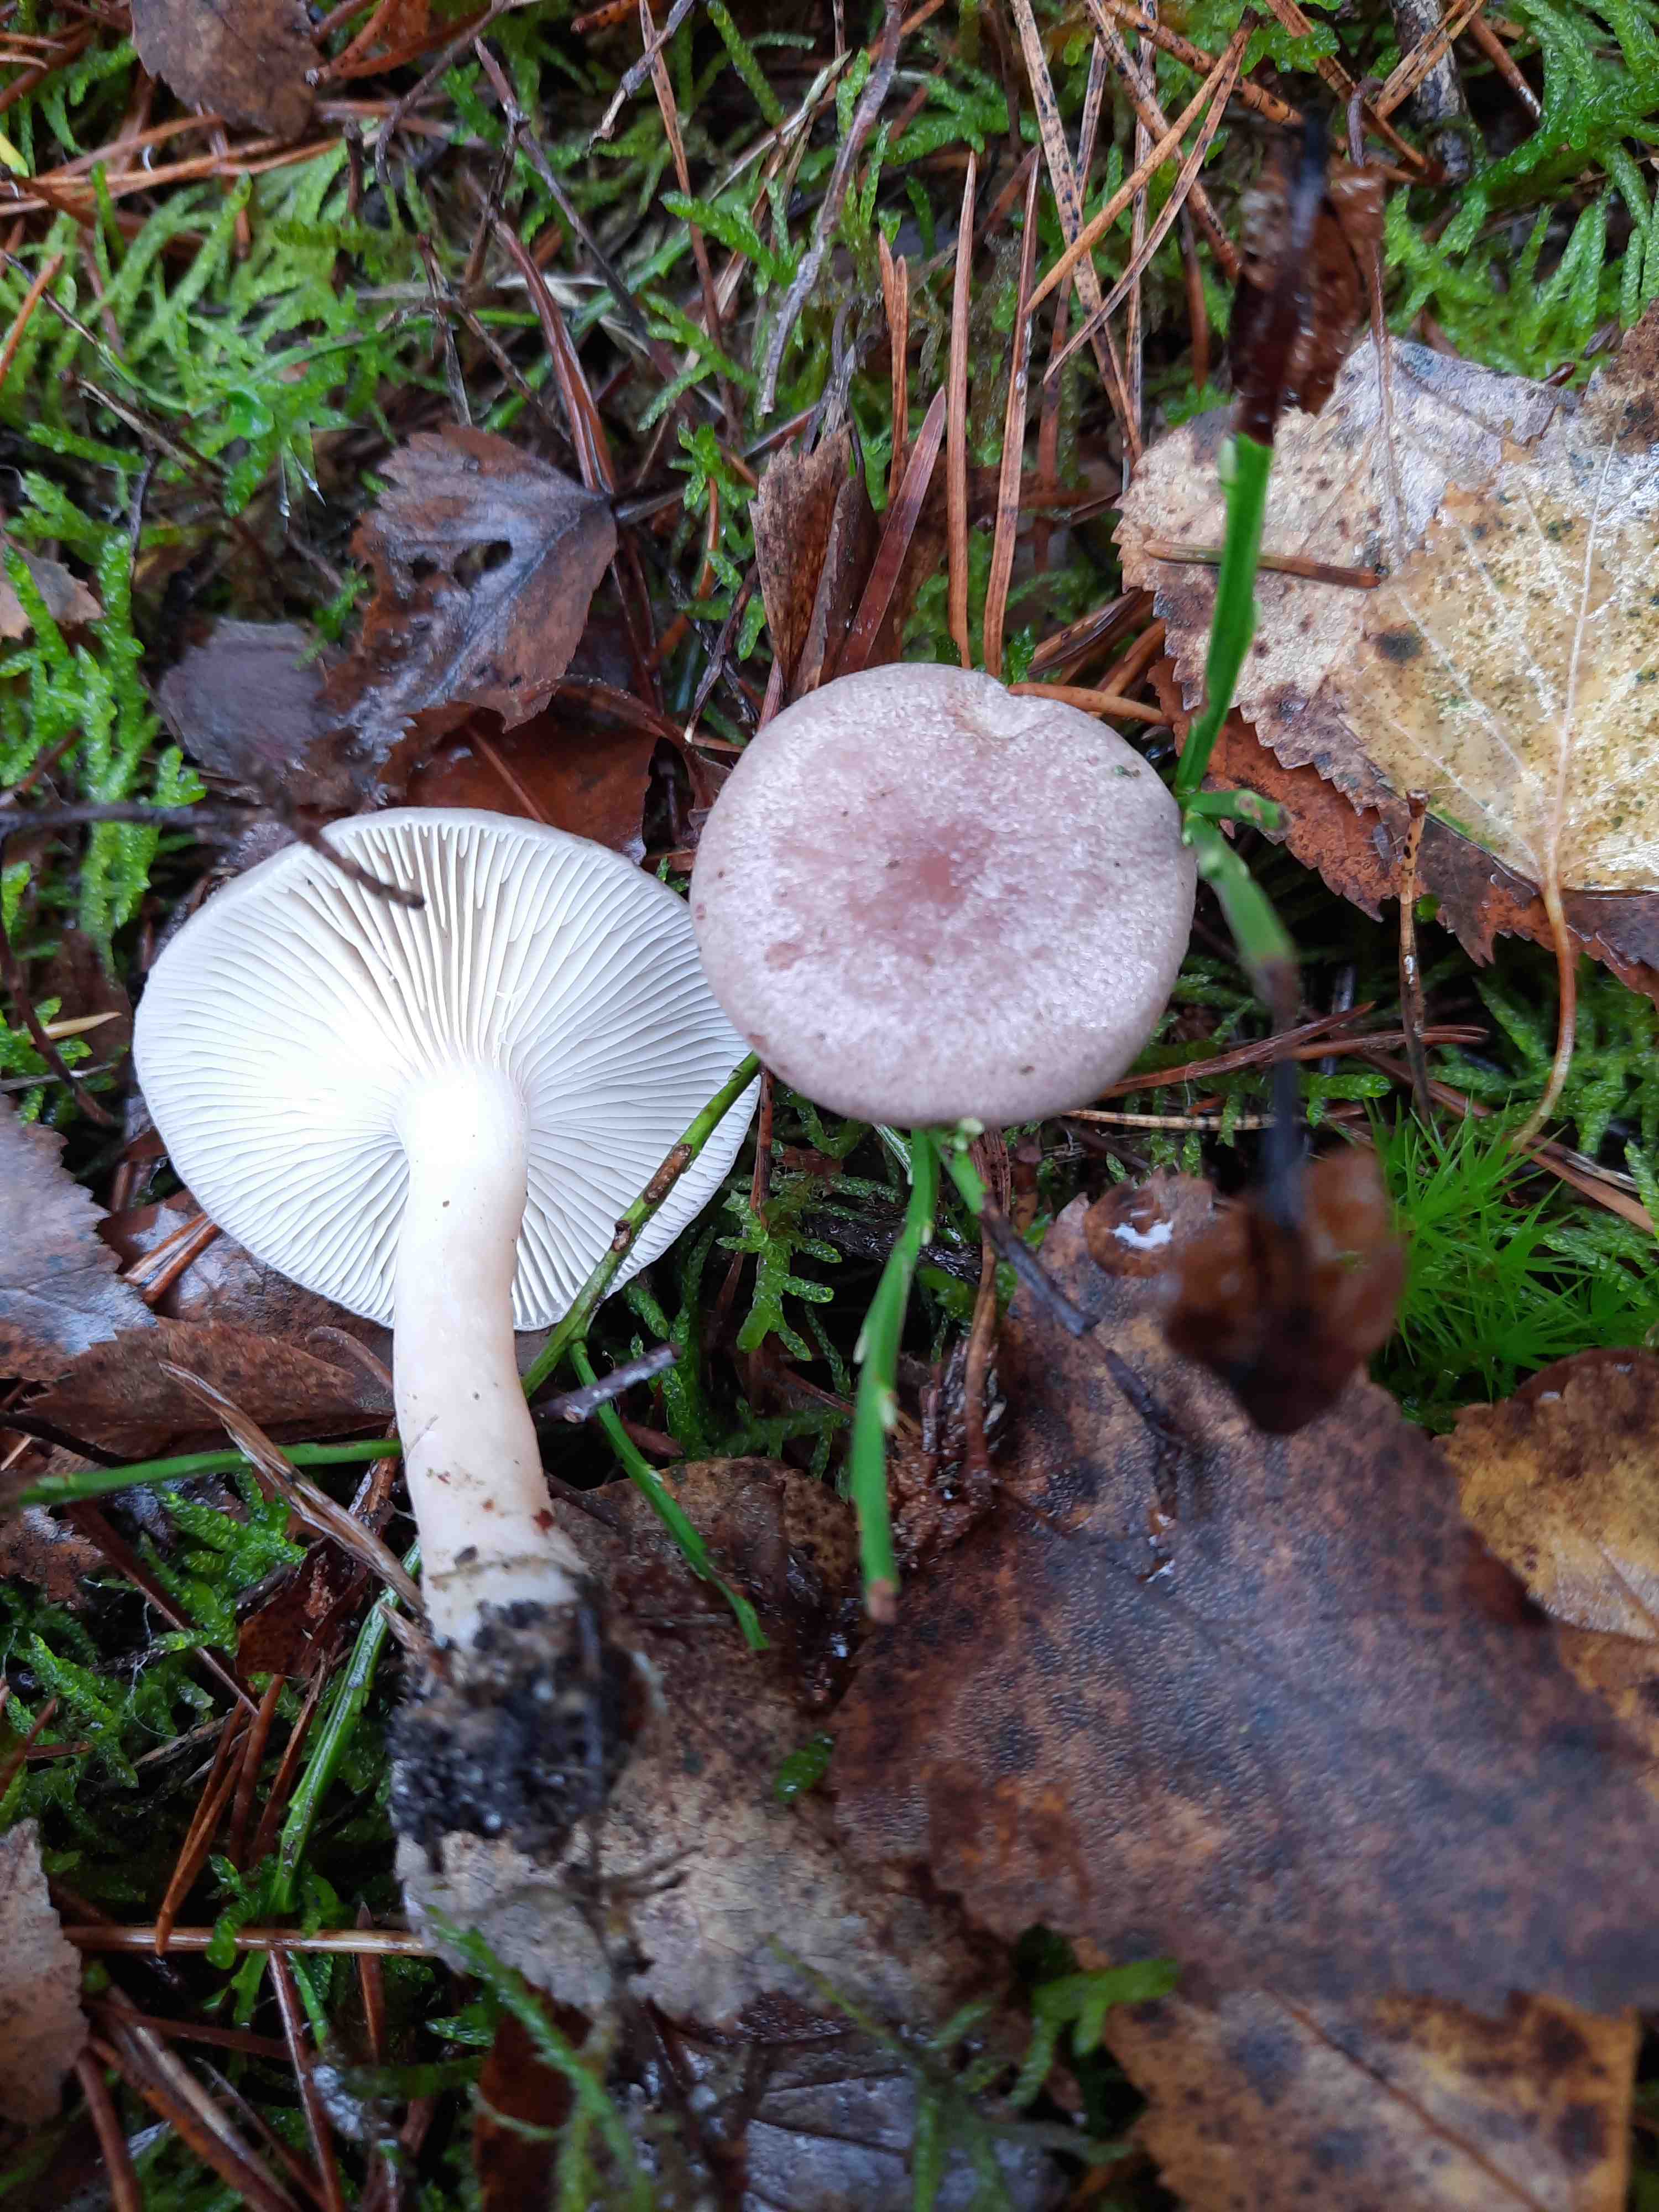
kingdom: Fungi
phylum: Basidiomycota
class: Agaricomycetes
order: Russulales
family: Russulaceae
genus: Lactarius
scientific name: Lactarius vietus
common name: violetgrå mælkehat
